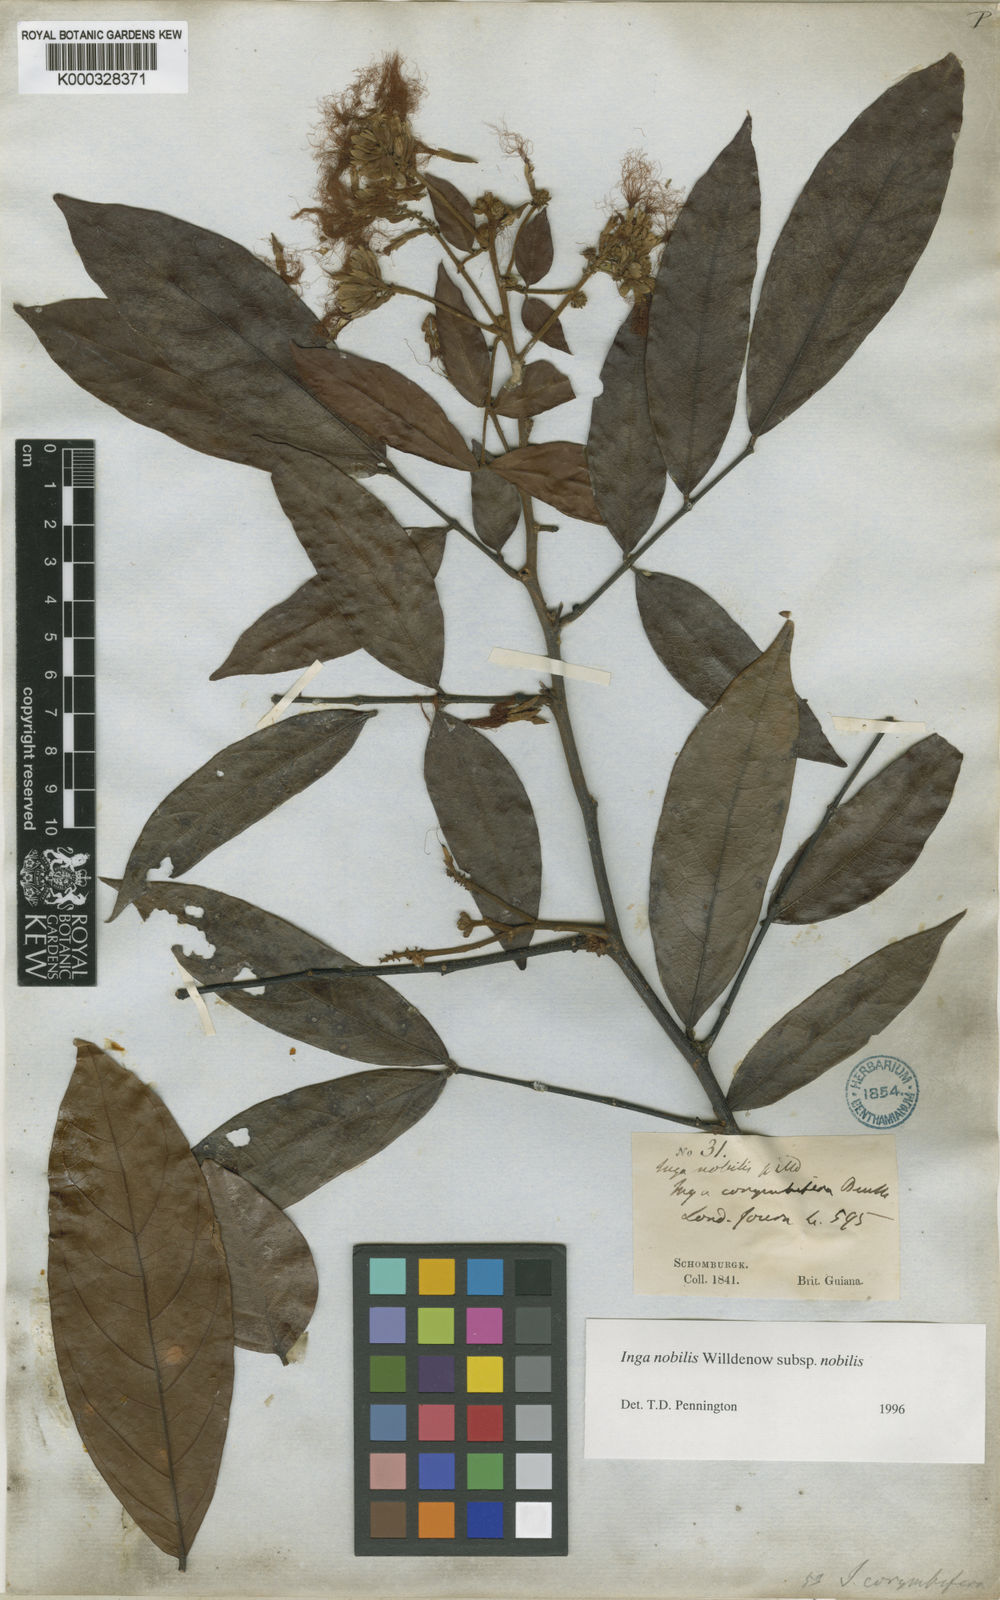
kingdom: Plantae
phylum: Tracheophyta
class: Magnoliopsida
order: Fabales
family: Fabaceae
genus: Inga
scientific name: Inga nobilis
